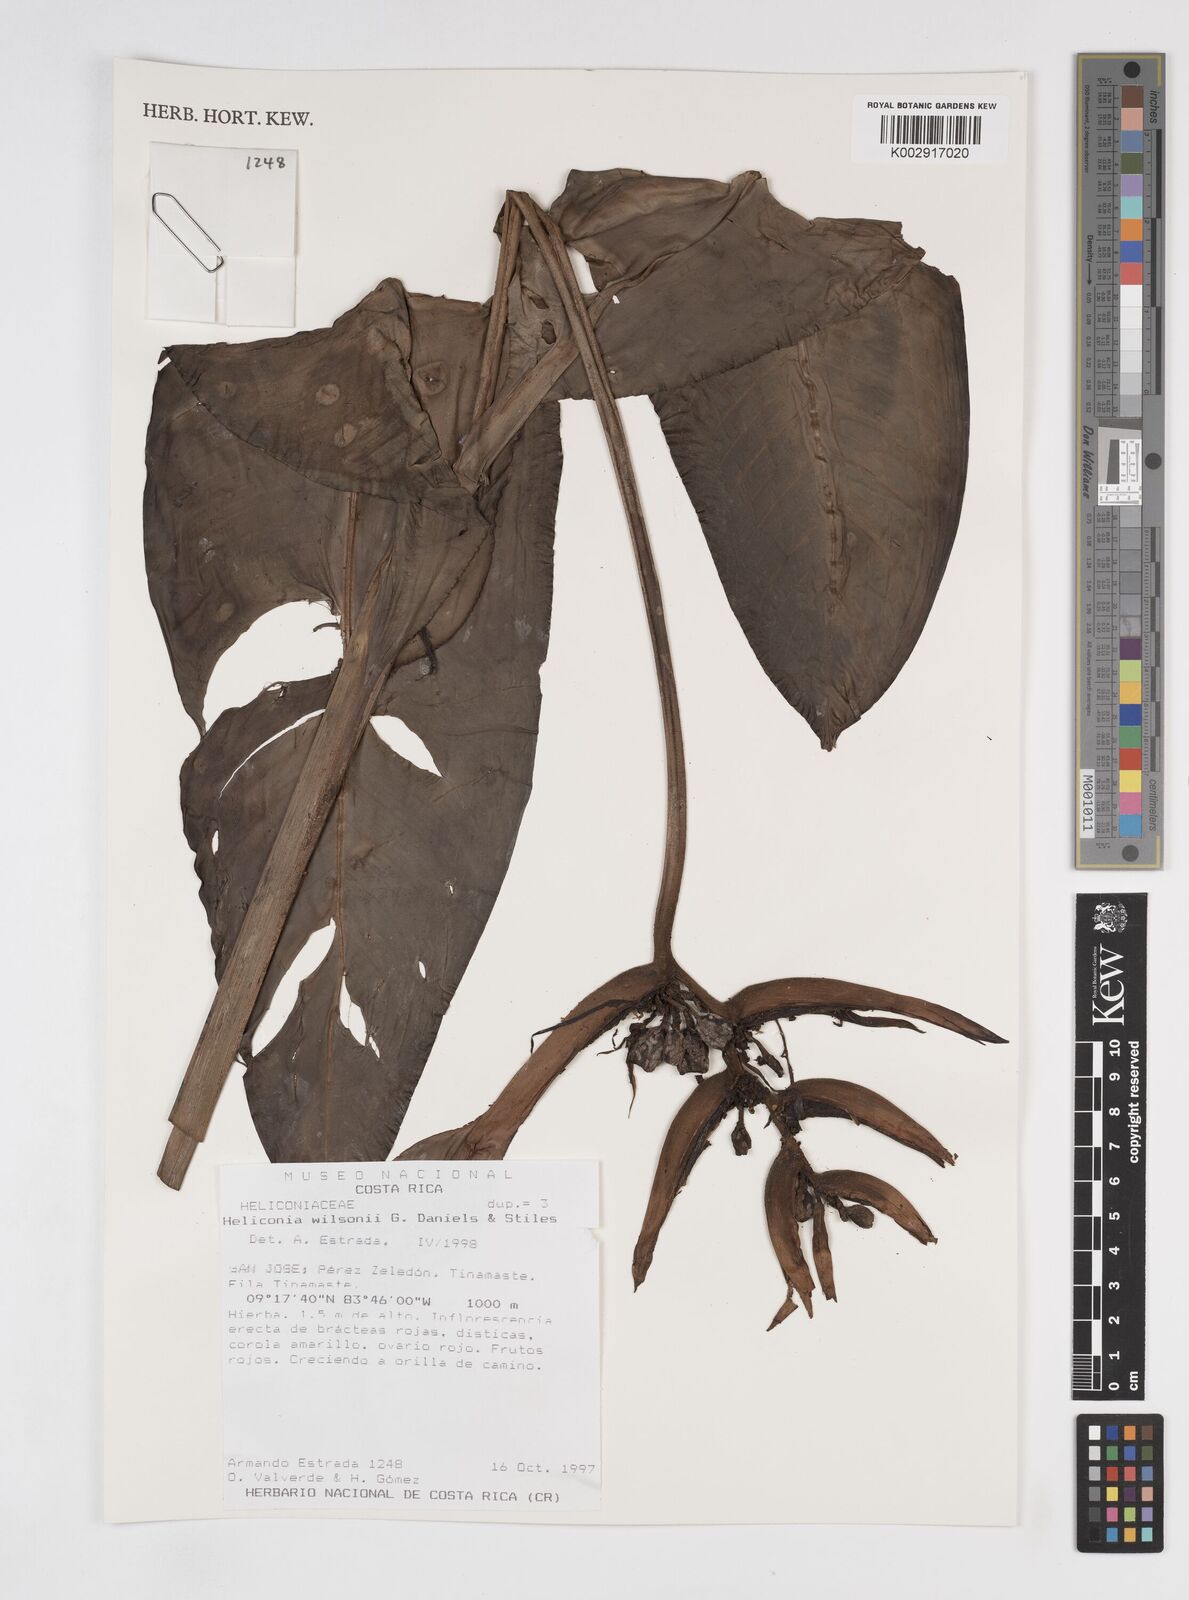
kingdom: Plantae
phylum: Tracheophyta
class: Liliopsida
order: Zingiberales
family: Heliconiaceae
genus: Heliconia
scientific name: Heliconia wilsonii
